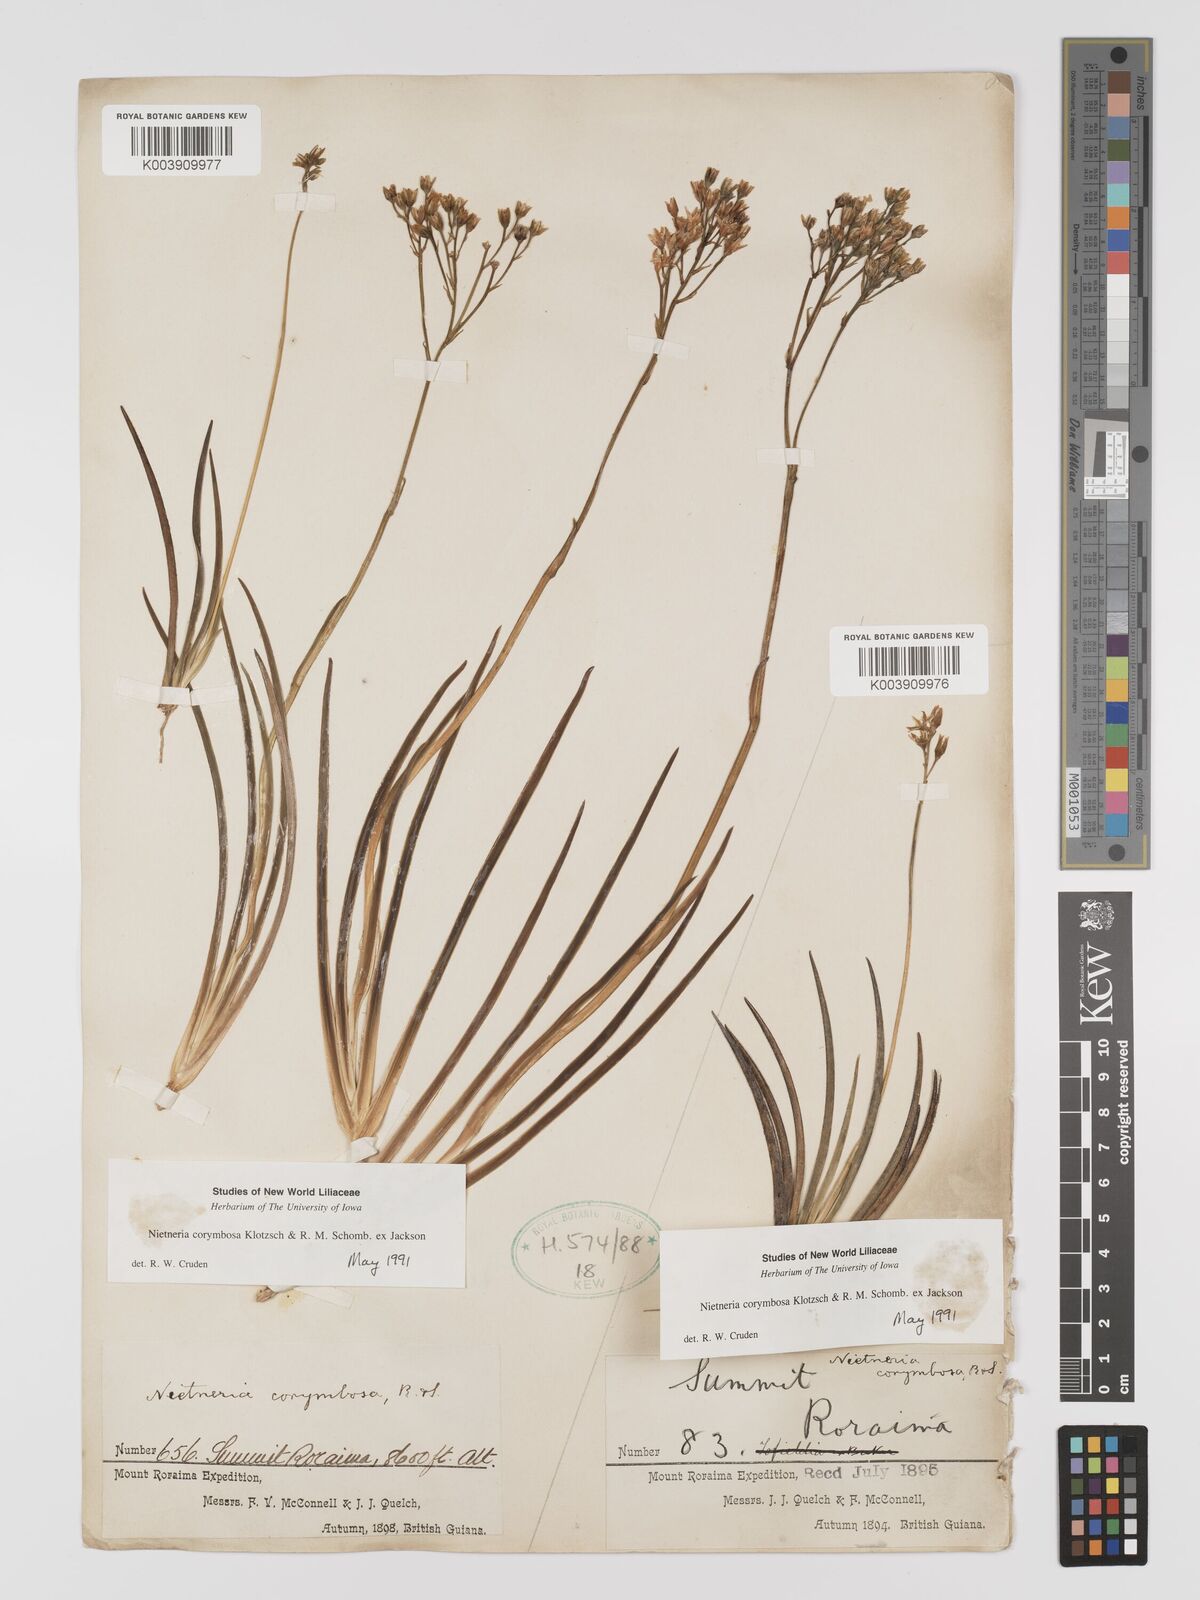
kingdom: Plantae
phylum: Tracheophyta
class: Liliopsida
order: Dioscoreales
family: Nartheciaceae
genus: Nietneria
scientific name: Nietneria corymbosa
